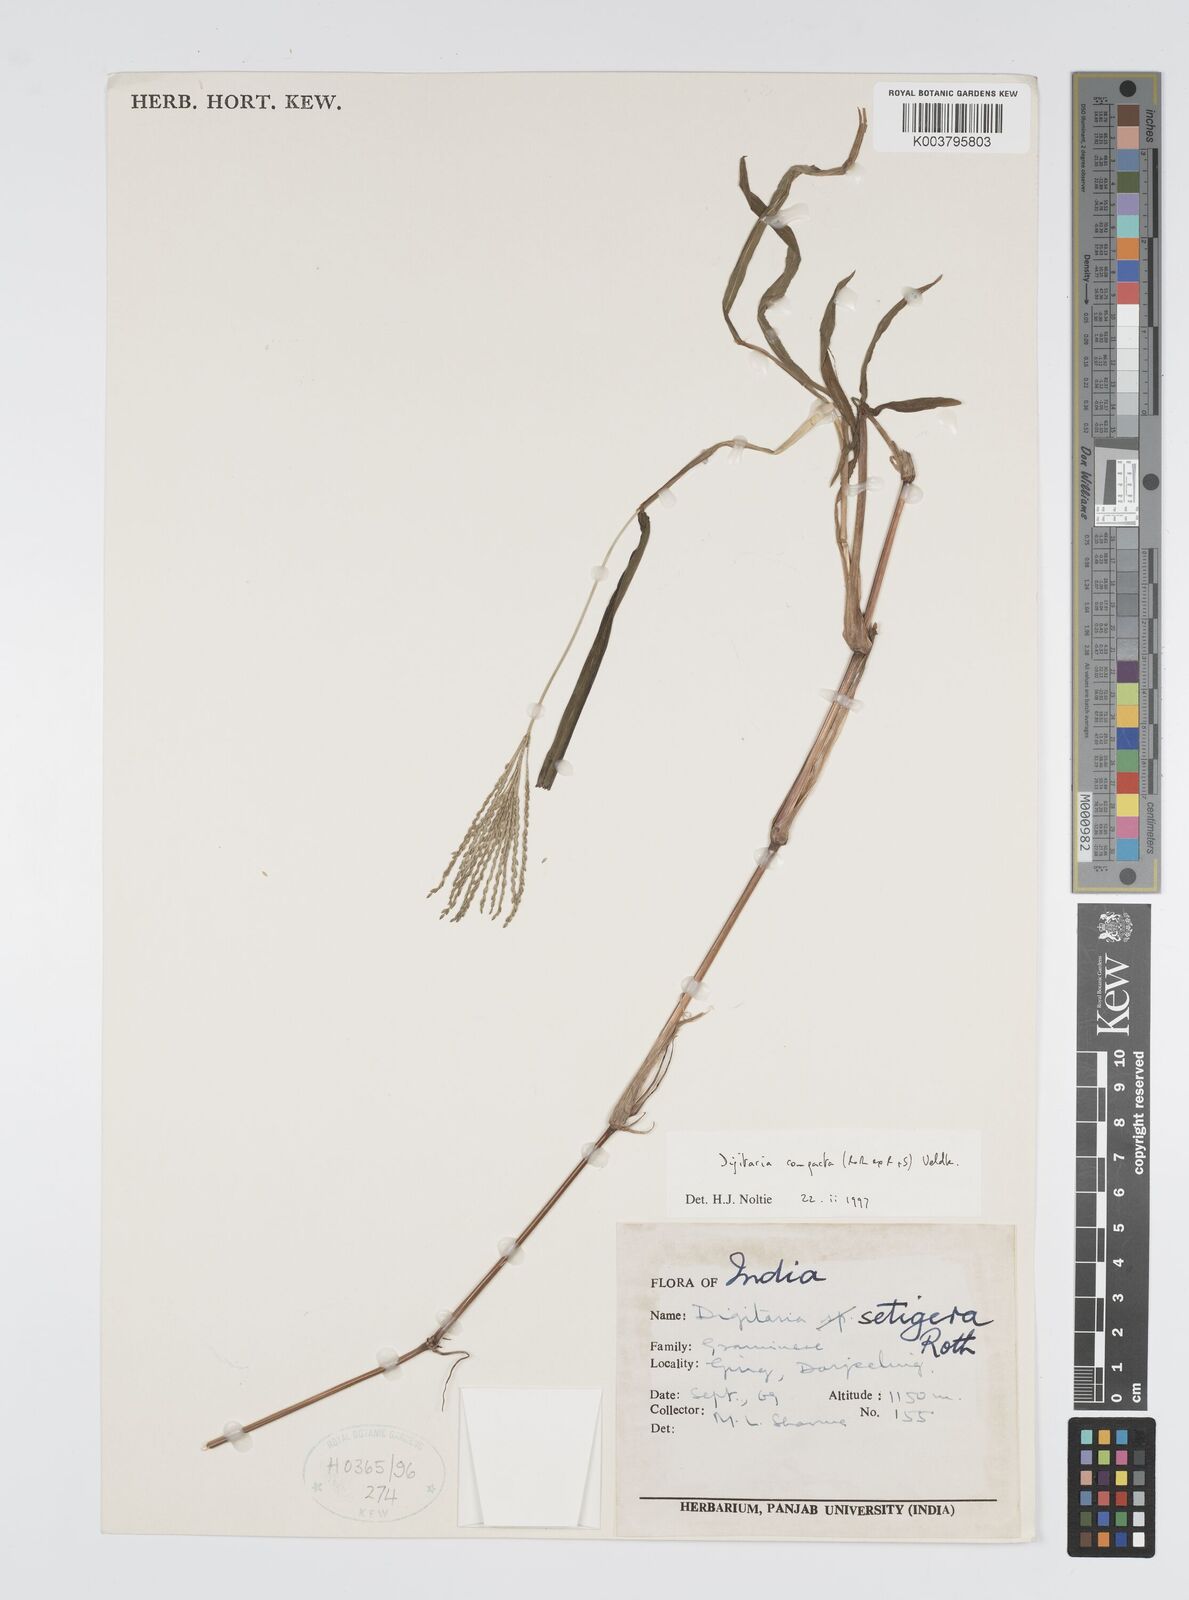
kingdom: Plantae
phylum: Tracheophyta
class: Liliopsida
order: Poales
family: Poaceae
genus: Digitaria
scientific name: Digitaria compacta
